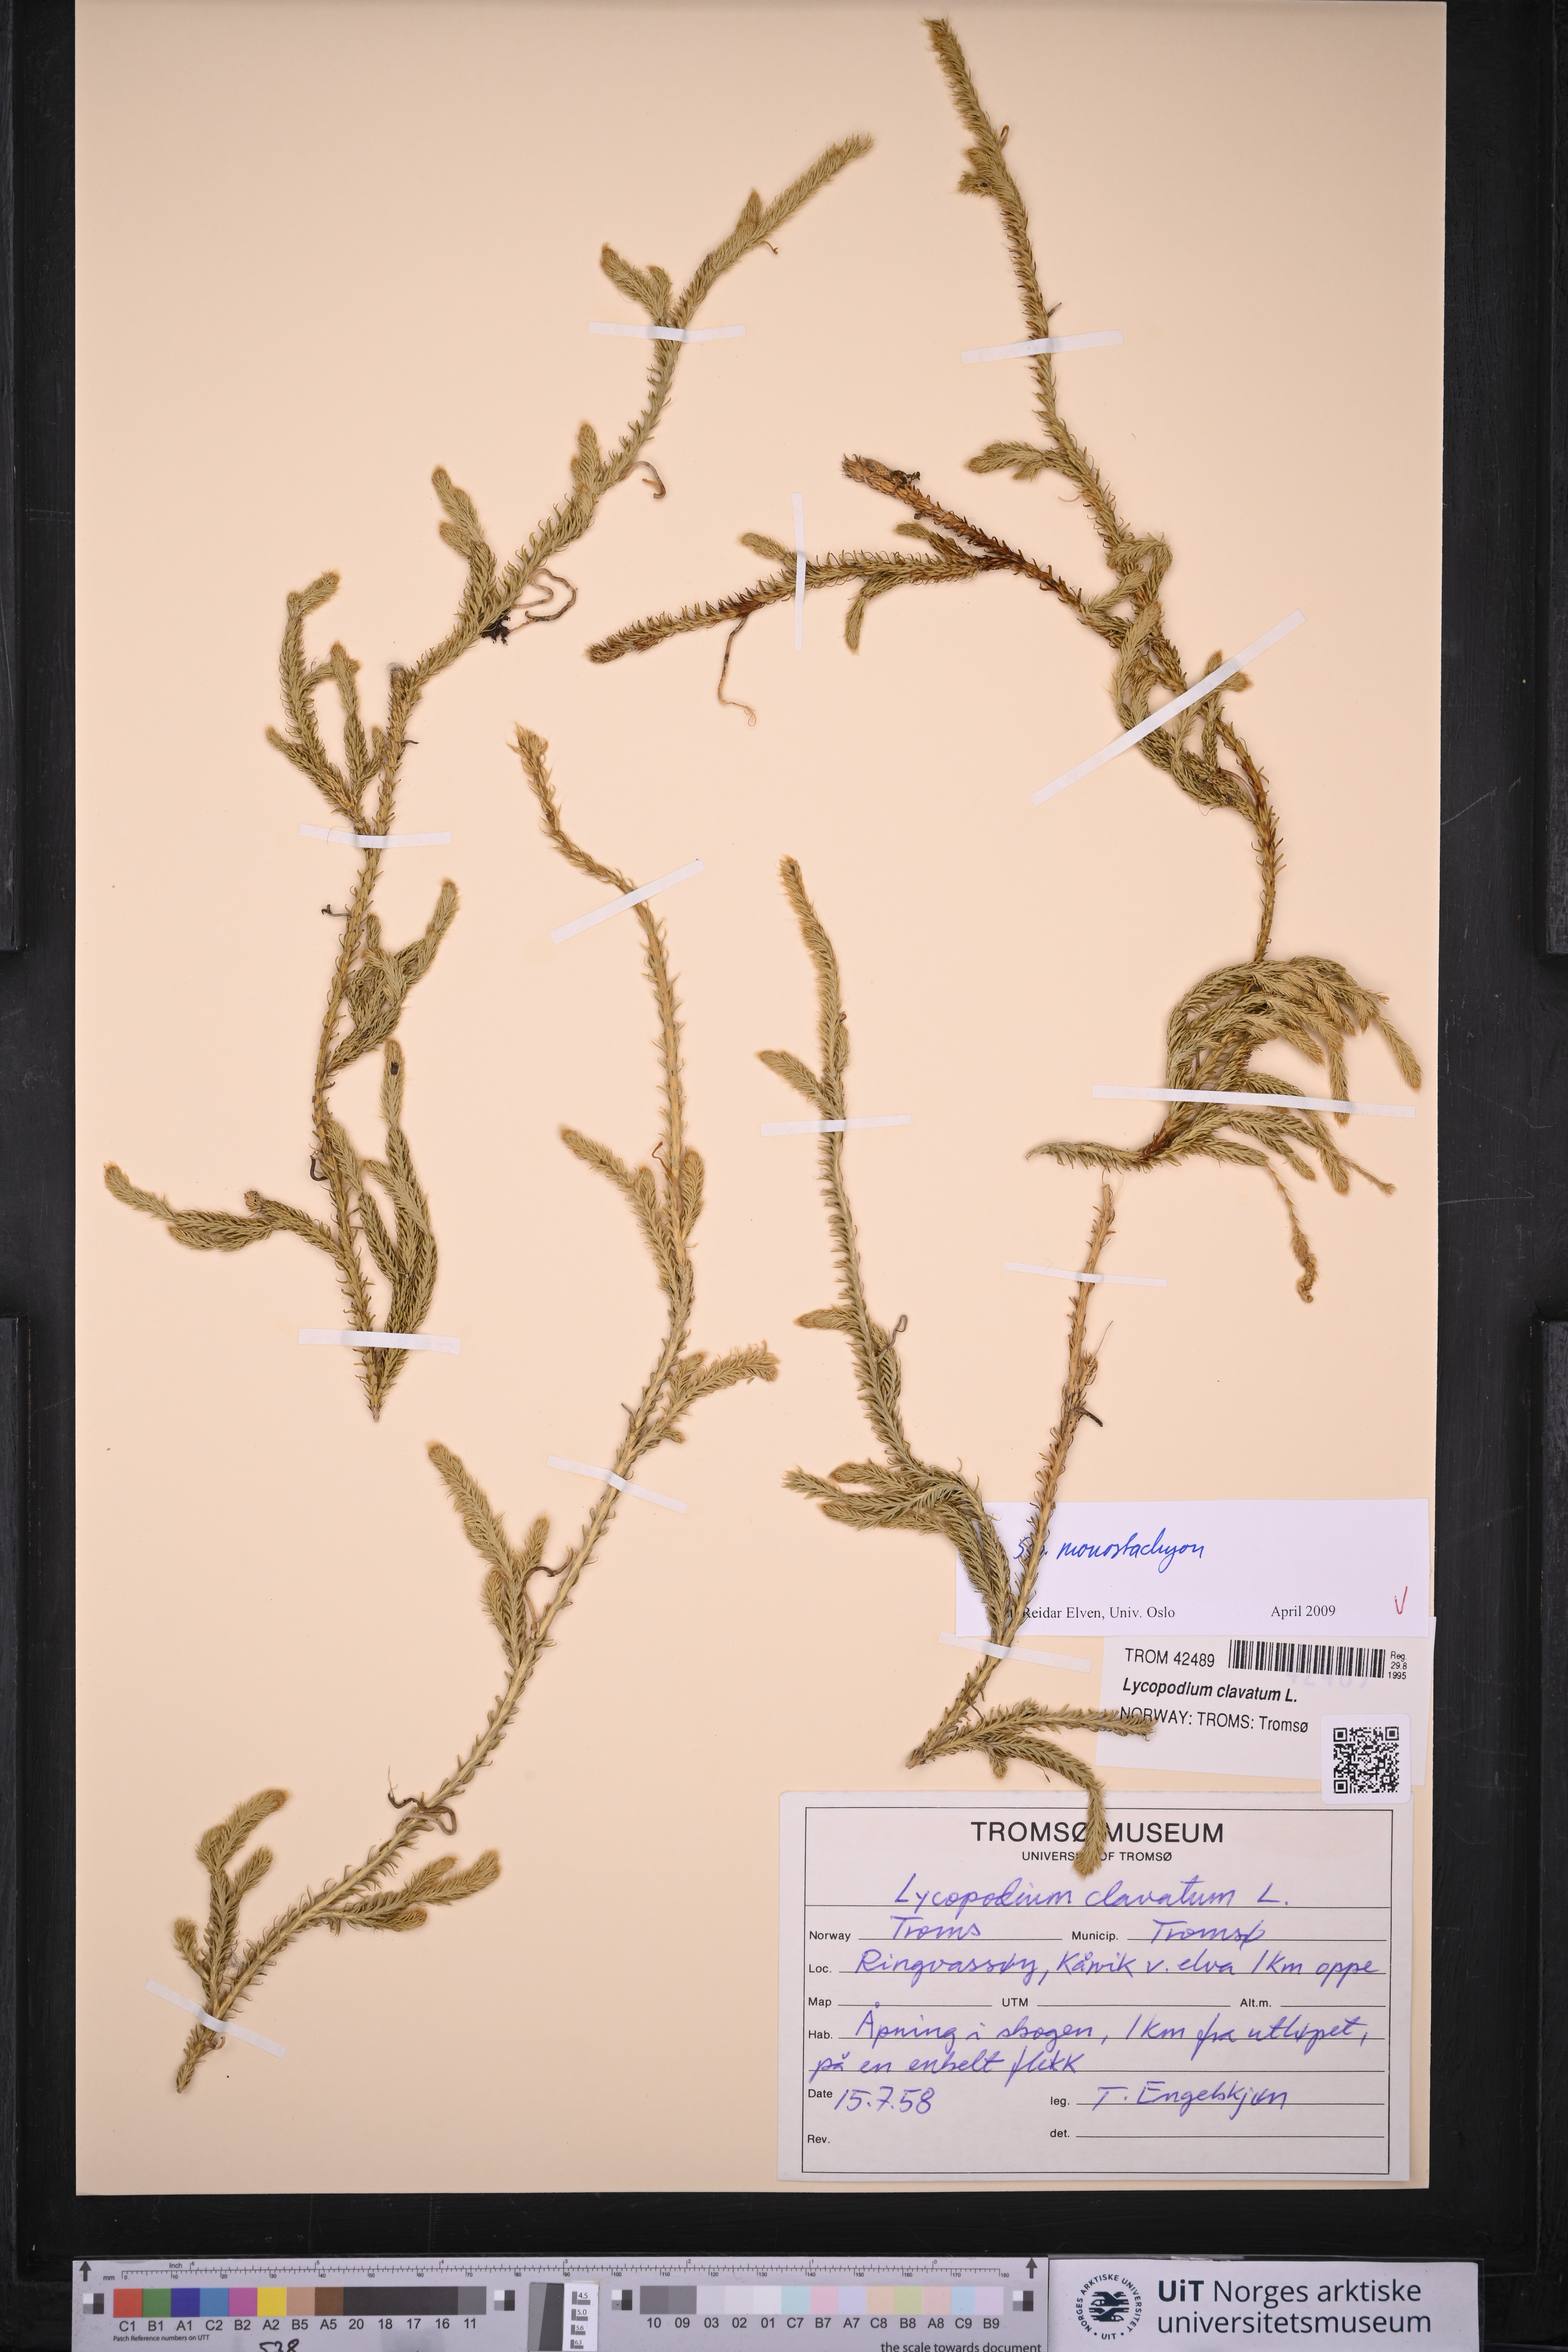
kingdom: Plantae
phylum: Tracheophyta
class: Lycopodiopsida
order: Lycopodiales
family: Lycopodiaceae
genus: Lycopodium
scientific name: Lycopodium lagopus
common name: One-cone clubmoss
